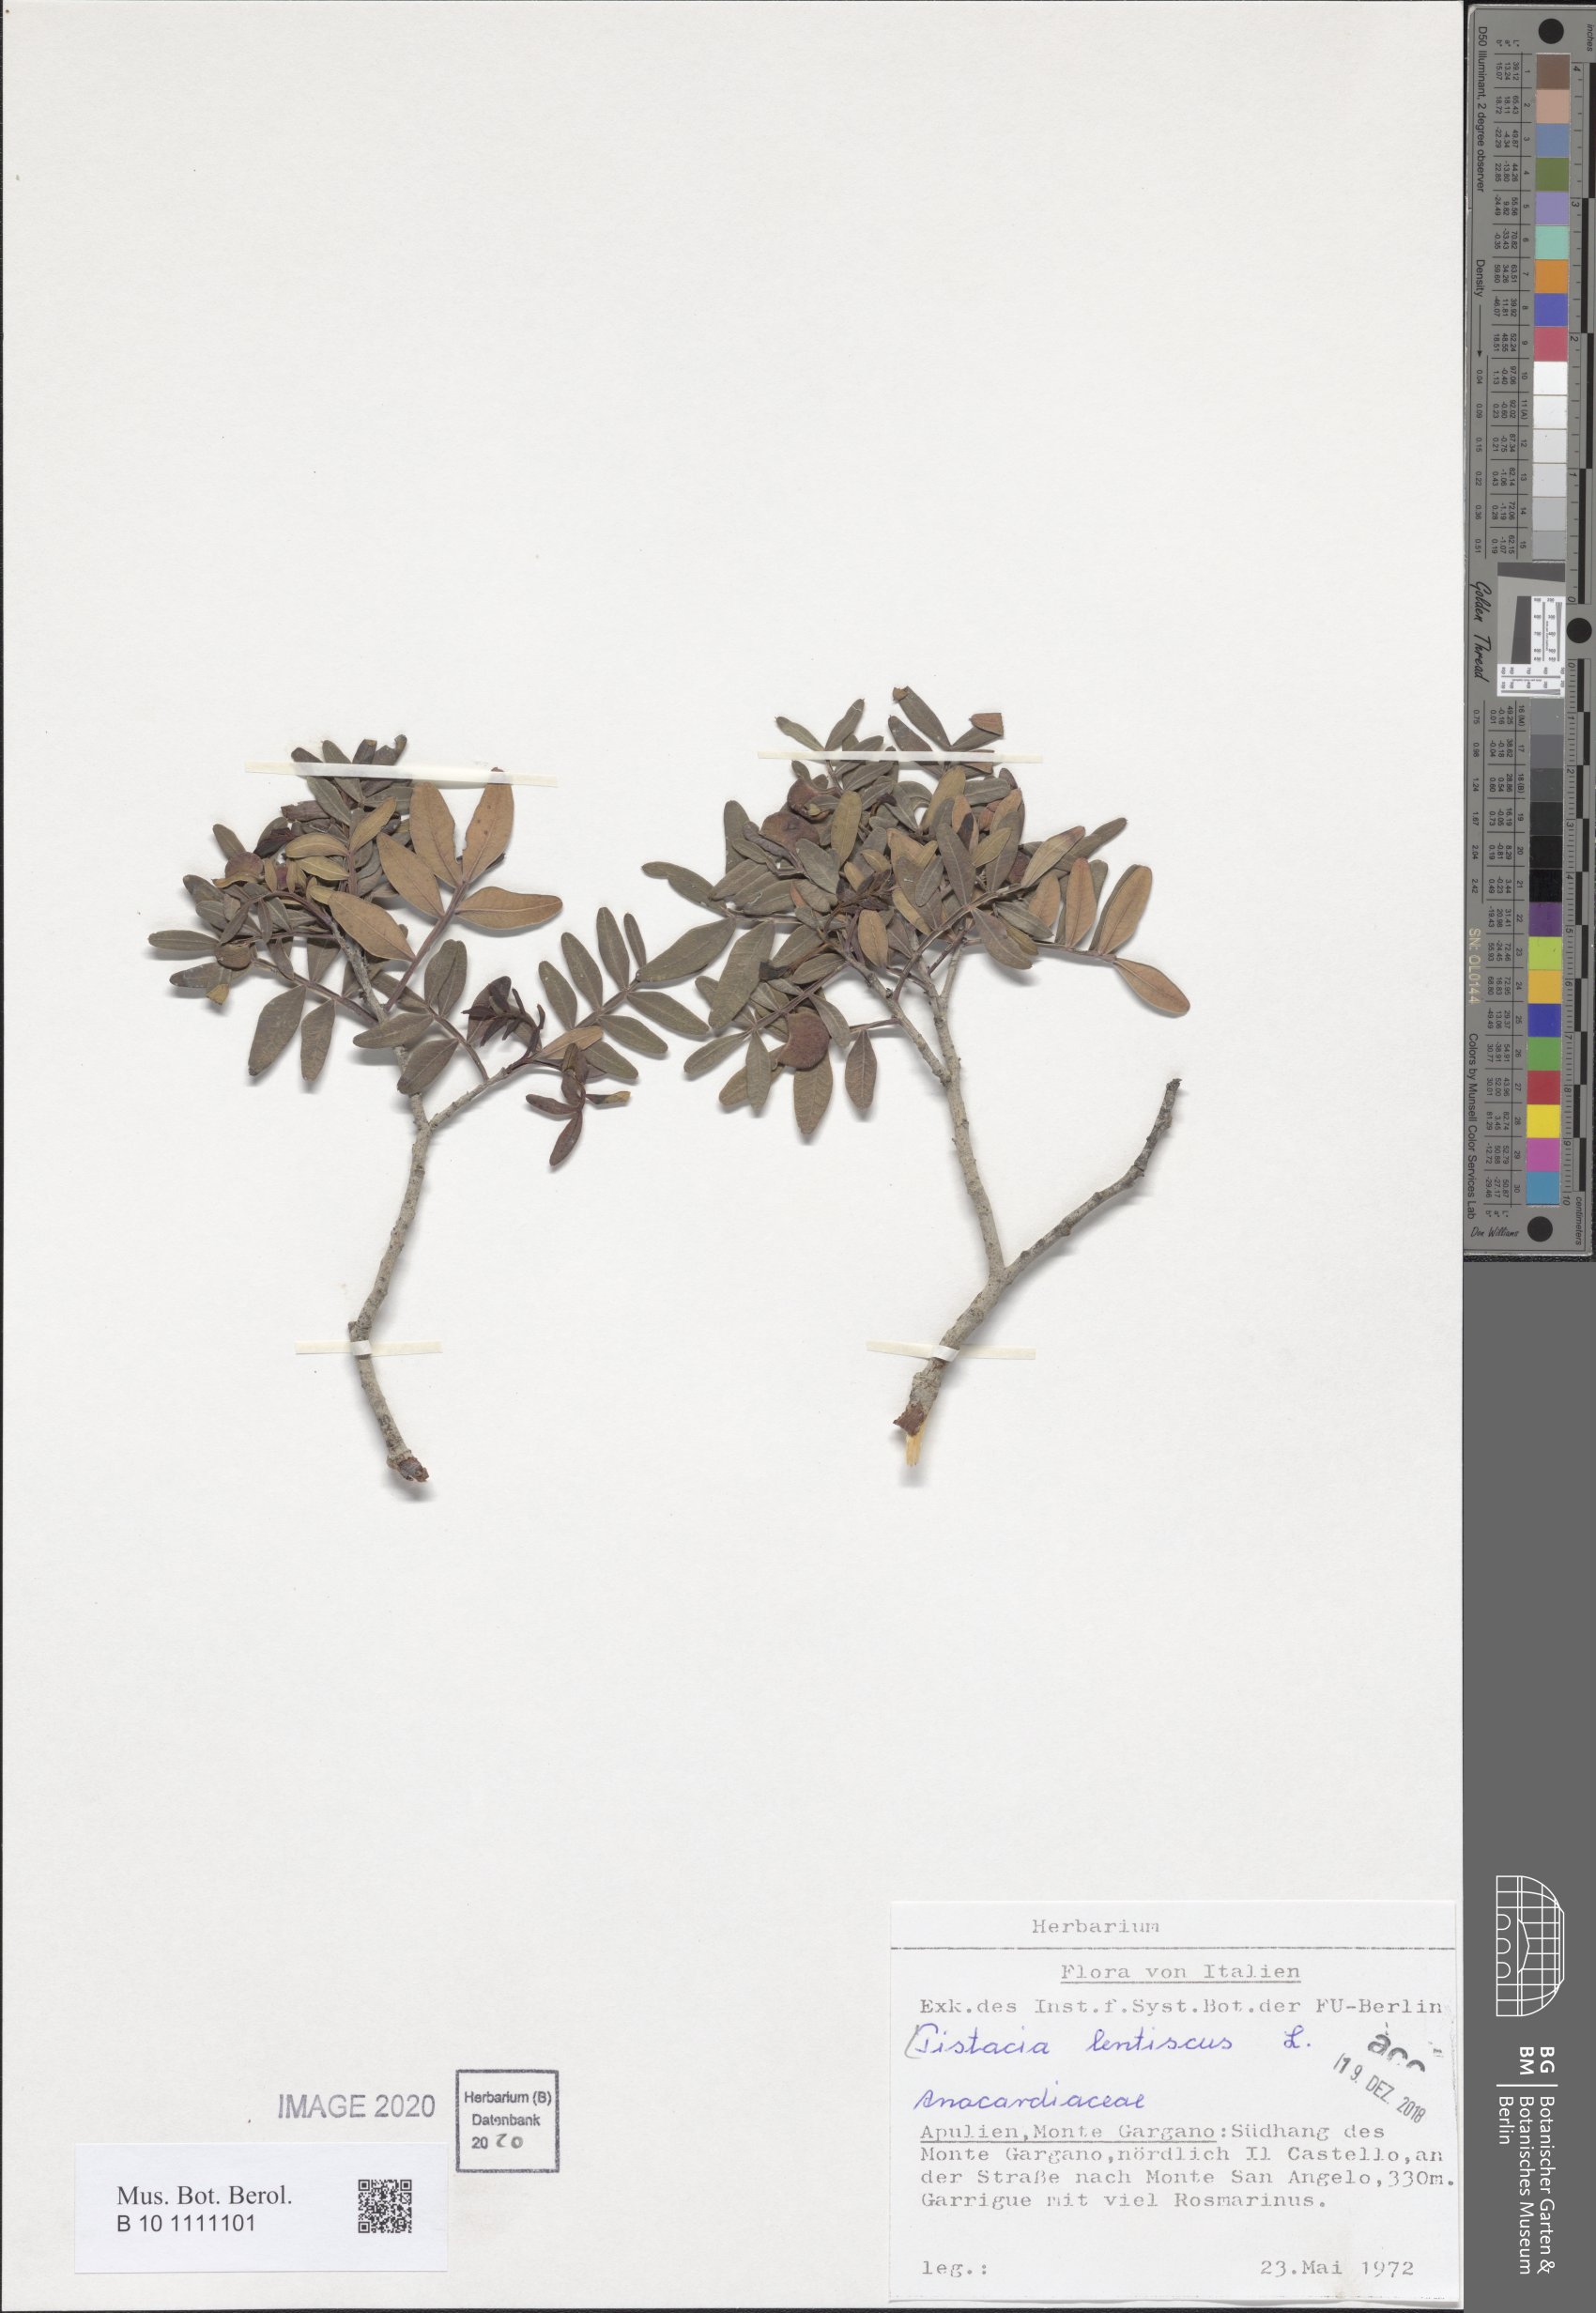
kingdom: Plantae
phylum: Tracheophyta
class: Magnoliopsida
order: Sapindales
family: Anacardiaceae
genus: Pistacia
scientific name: Pistacia lentiscus
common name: Lentisk
